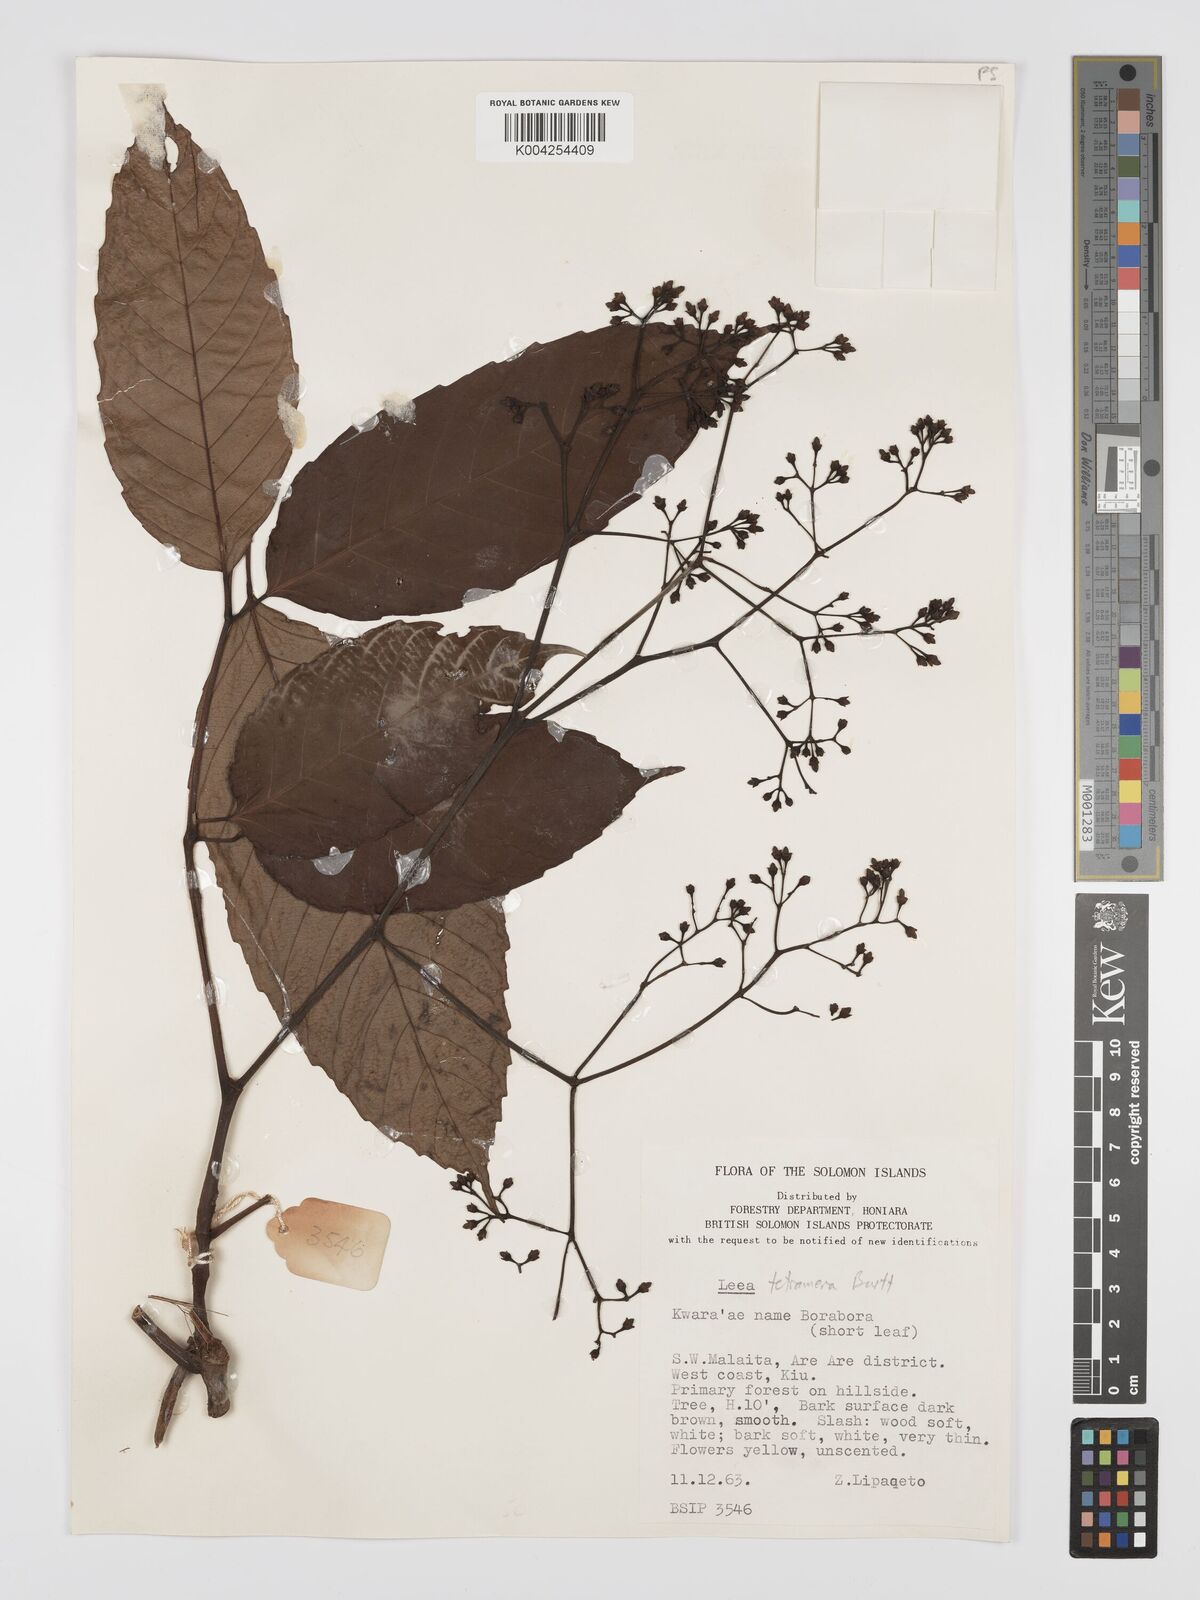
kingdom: Plantae
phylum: Tracheophyta
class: Magnoliopsida
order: Vitales
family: Vitaceae
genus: Leea
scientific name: Leea tetramera
